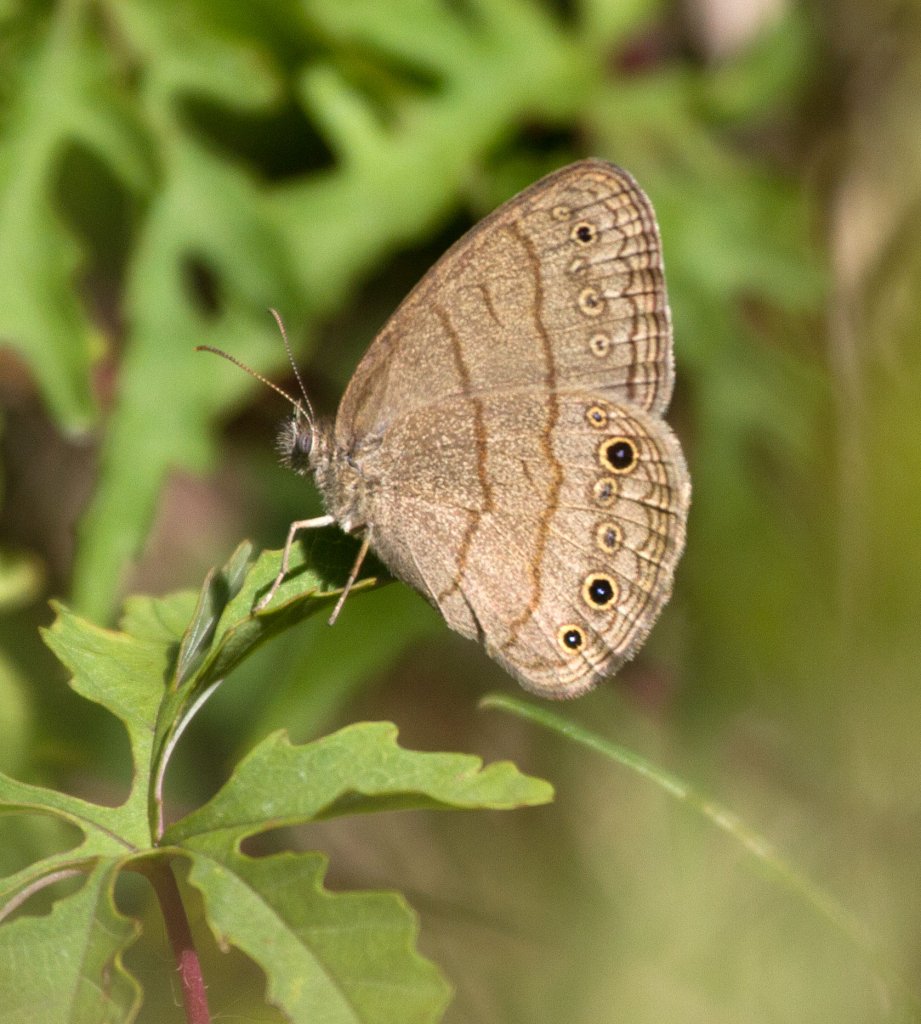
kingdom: Animalia
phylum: Arthropoda
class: Insecta
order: Lepidoptera
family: Nymphalidae
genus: Hermeuptychia
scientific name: Hermeuptychia hermes
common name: Carolina Satyr
